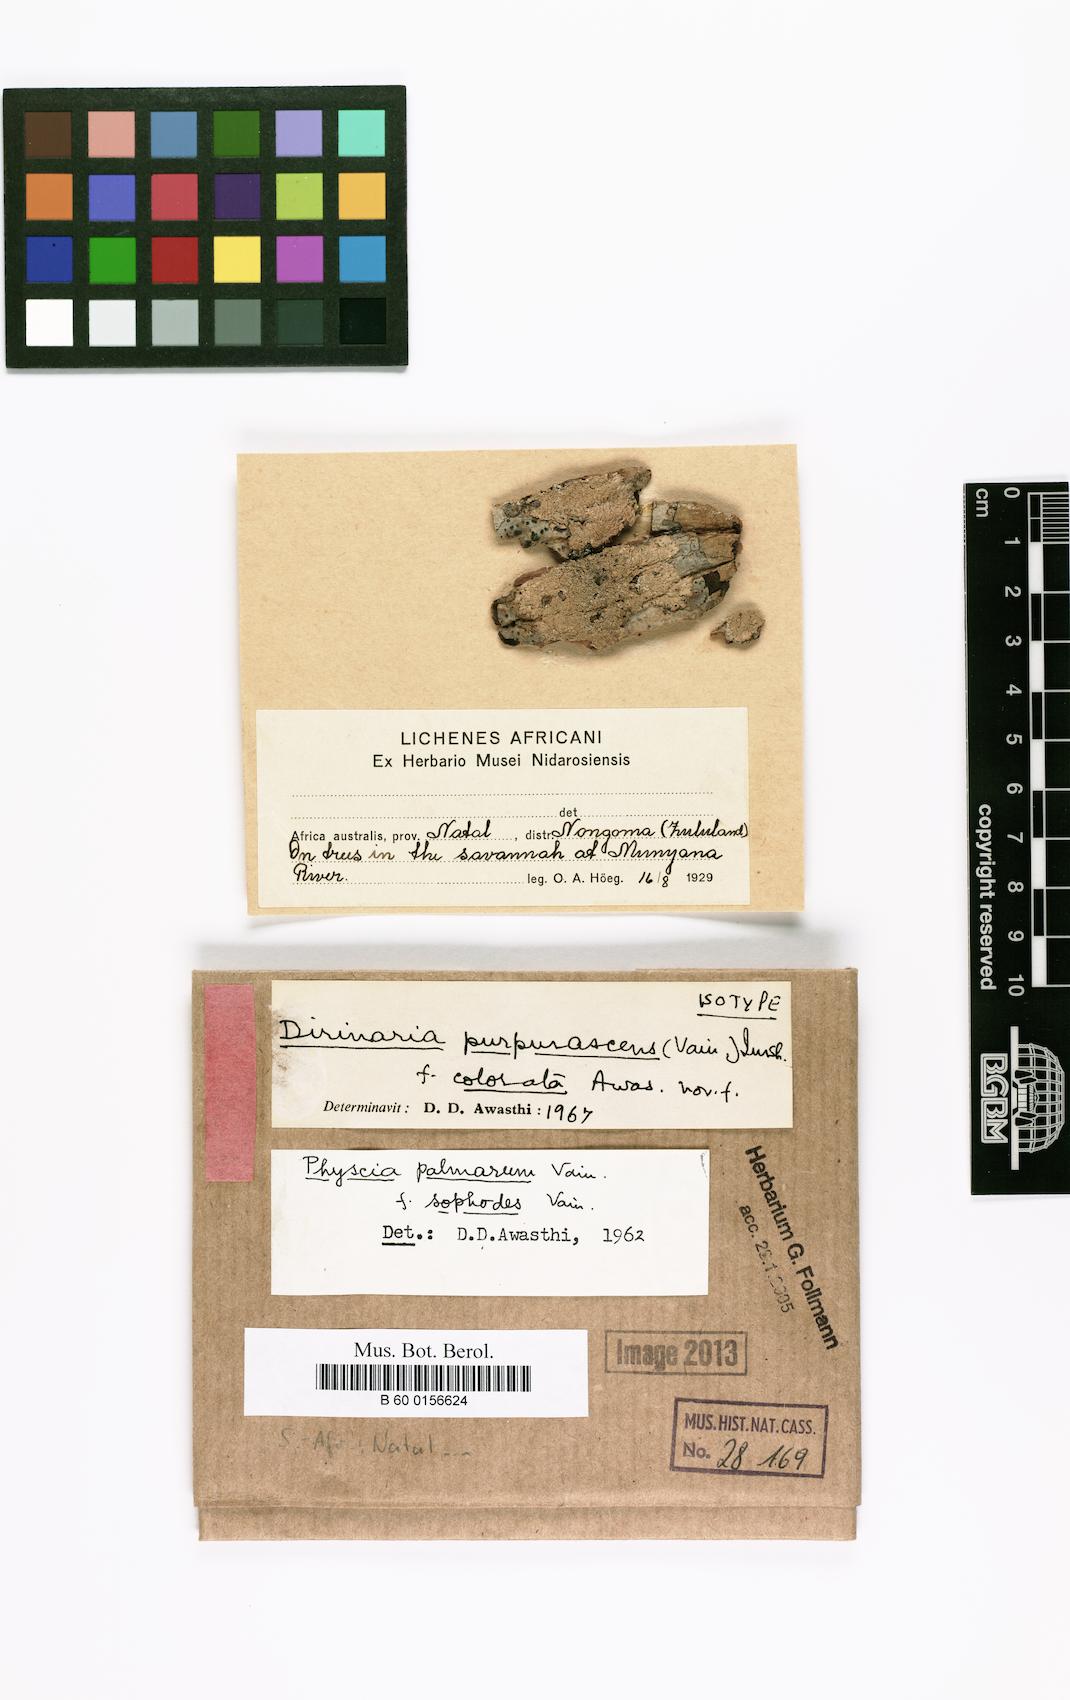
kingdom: Fungi
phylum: Ascomycota
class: Lecanoromycetes
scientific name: Lecanoromycetes
